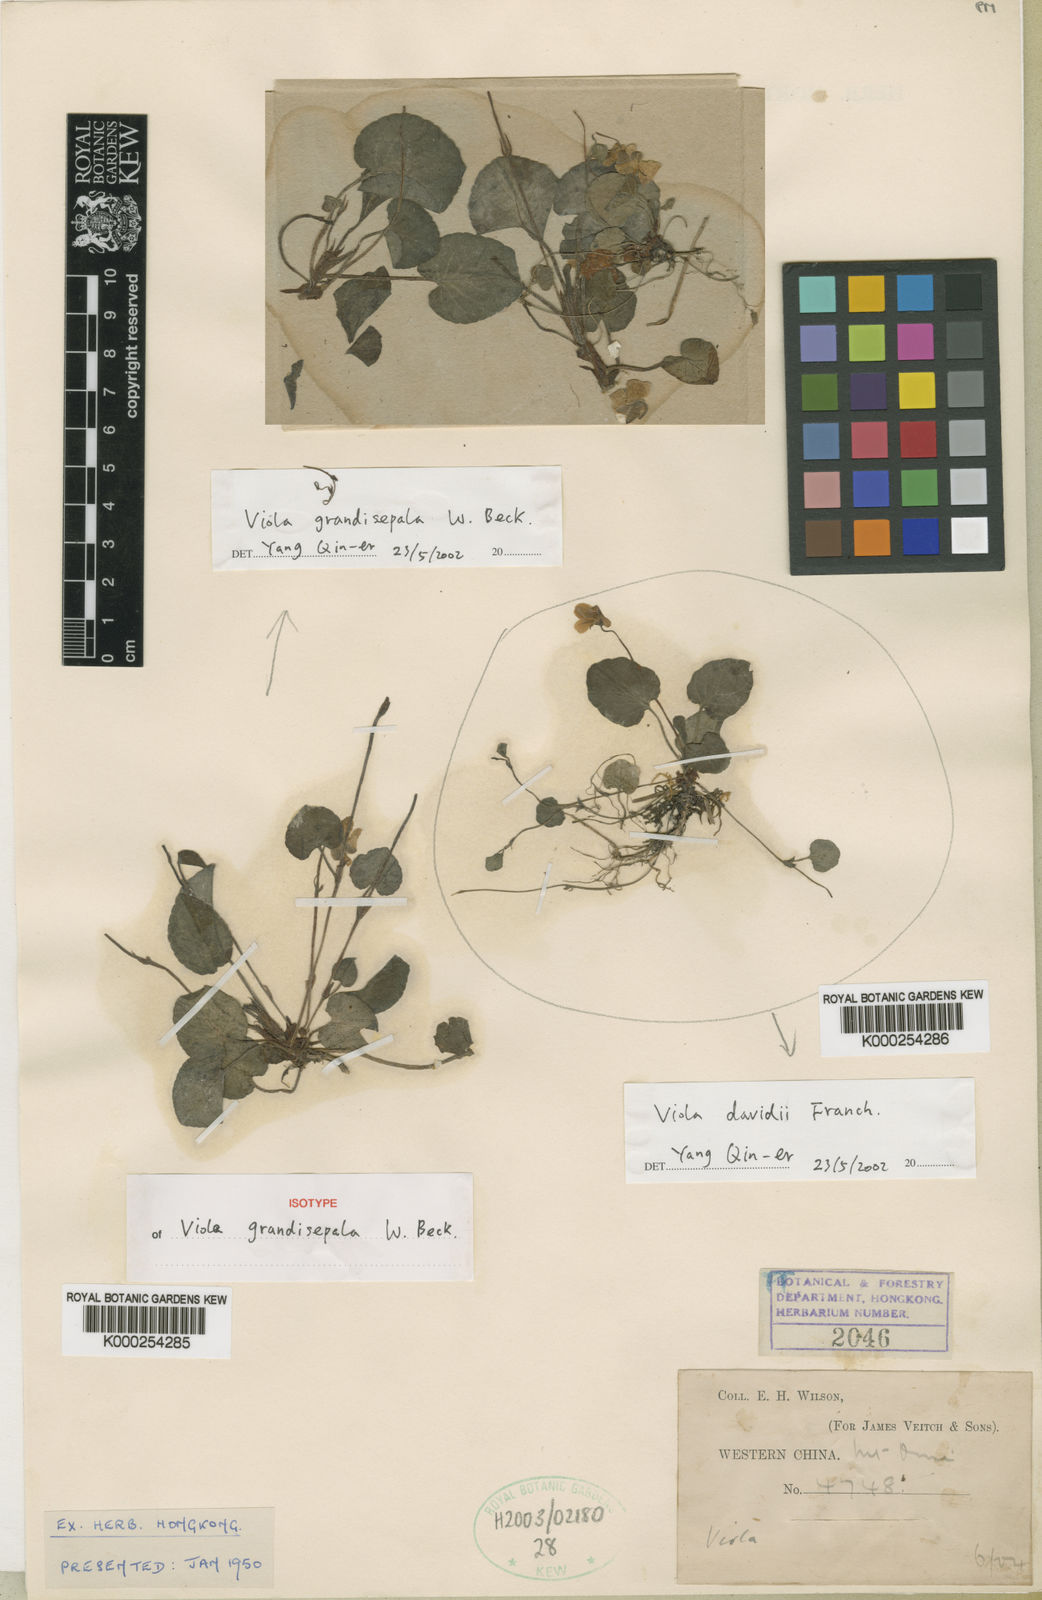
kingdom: Plantae
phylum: Tracheophyta
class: Magnoliopsida
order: Malpighiales
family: Violaceae
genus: Viola
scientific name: Viola grandisepala
